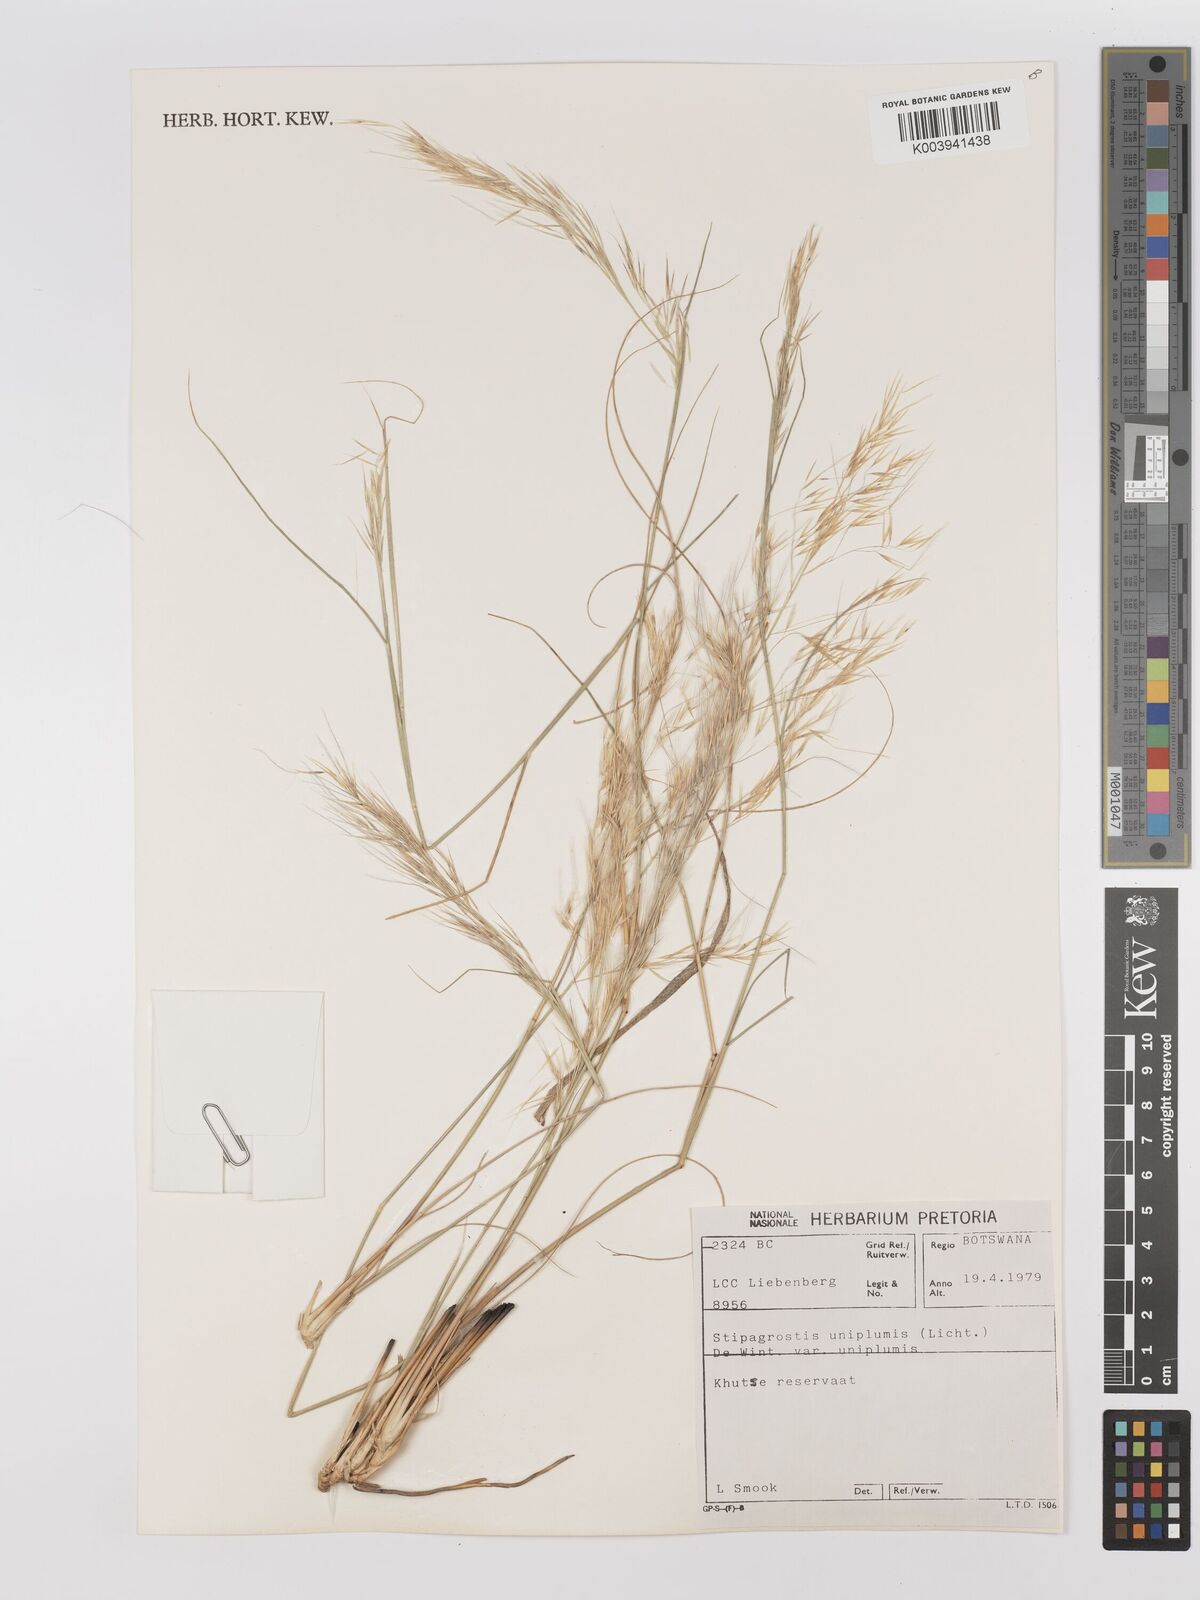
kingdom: Plantae
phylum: Tracheophyta
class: Liliopsida
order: Poales
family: Poaceae
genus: Stipagrostis
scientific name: Stipagrostis uniplumis
